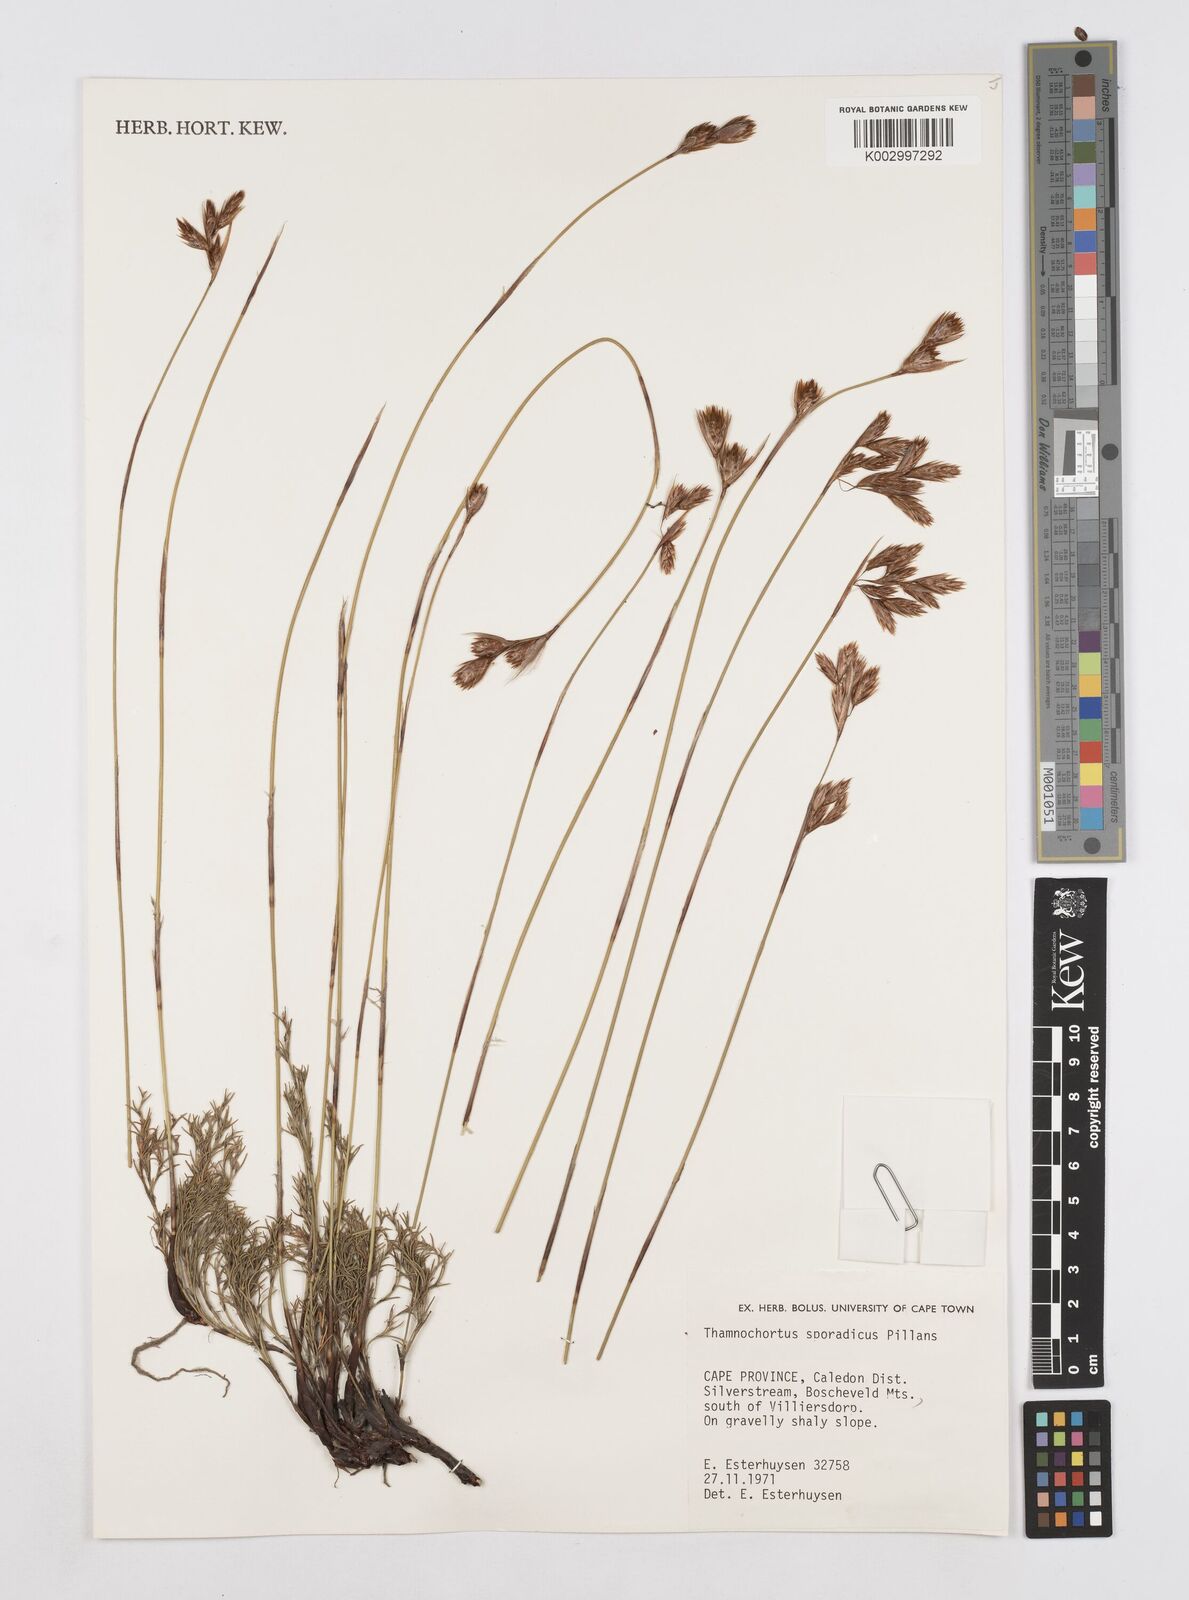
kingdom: Plantae
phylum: Tracheophyta
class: Liliopsida
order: Poales
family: Restionaceae
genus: Thamnochortus
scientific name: Thamnochortus sporadicus
